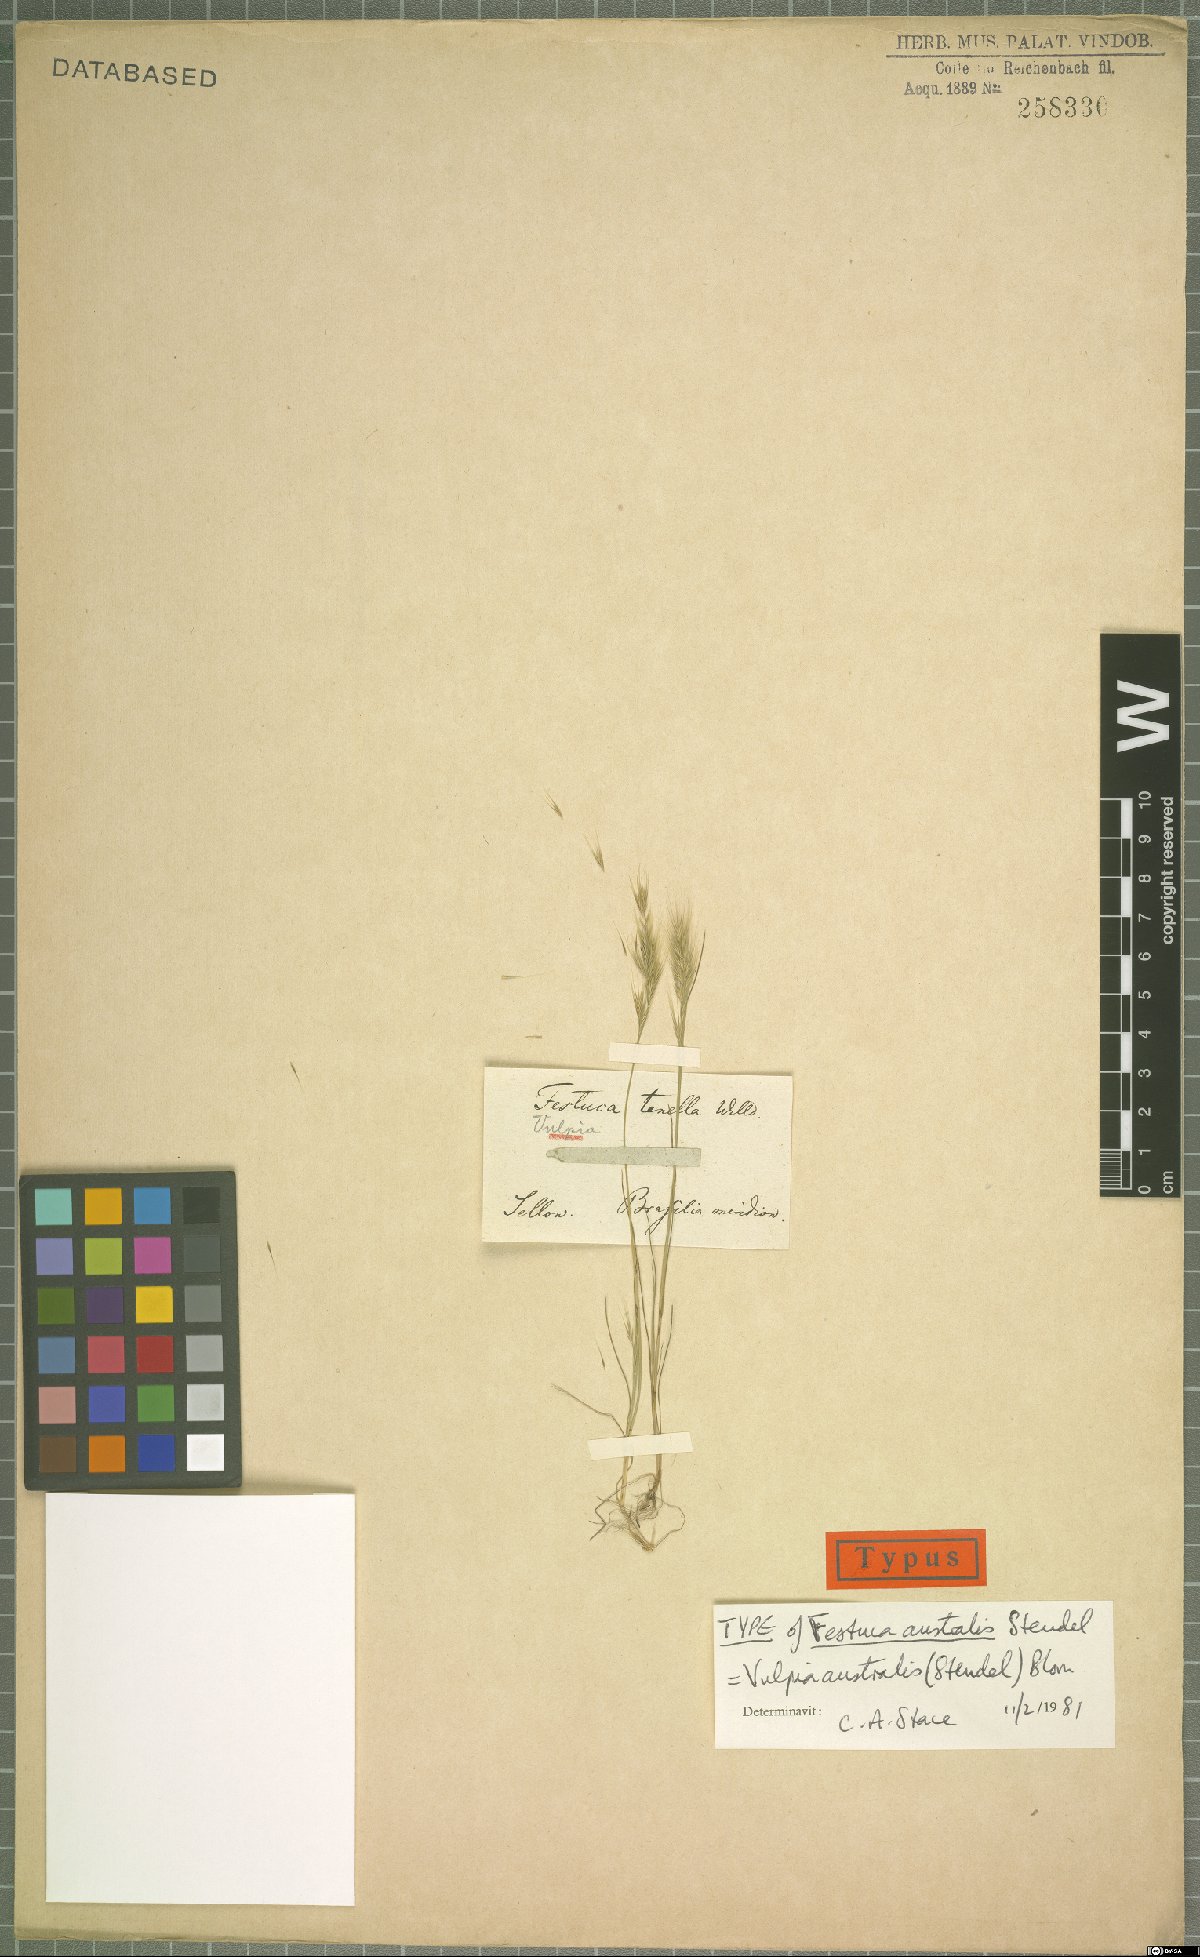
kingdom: Plantae
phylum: Tracheophyta
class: Liliopsida
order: Poales
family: Poaceae
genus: Festuca
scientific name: Festuca australis
